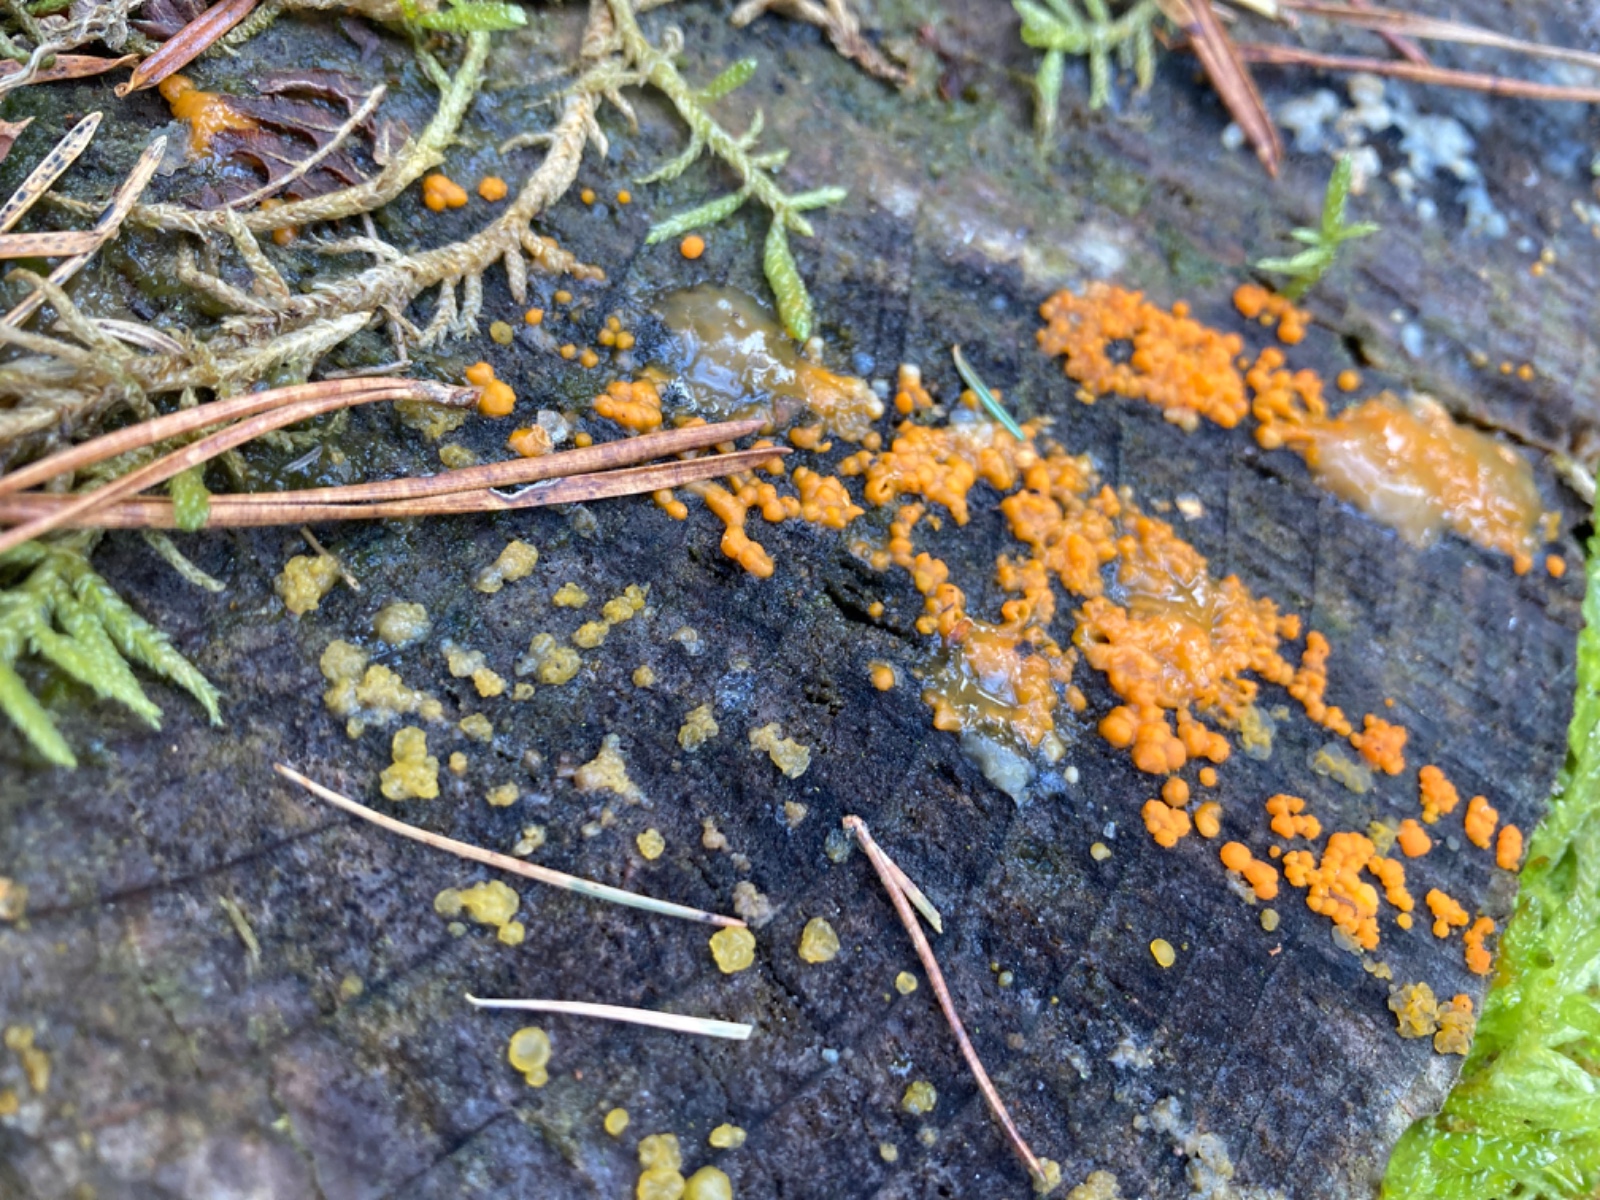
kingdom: Fungi
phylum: Basidiomycota
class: Dacrymycetes
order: Dacrymycetales
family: Dacrymycetaceae
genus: Dacrymyces
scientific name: Dacrymyces stillatus
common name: almindelig tåresvamp
